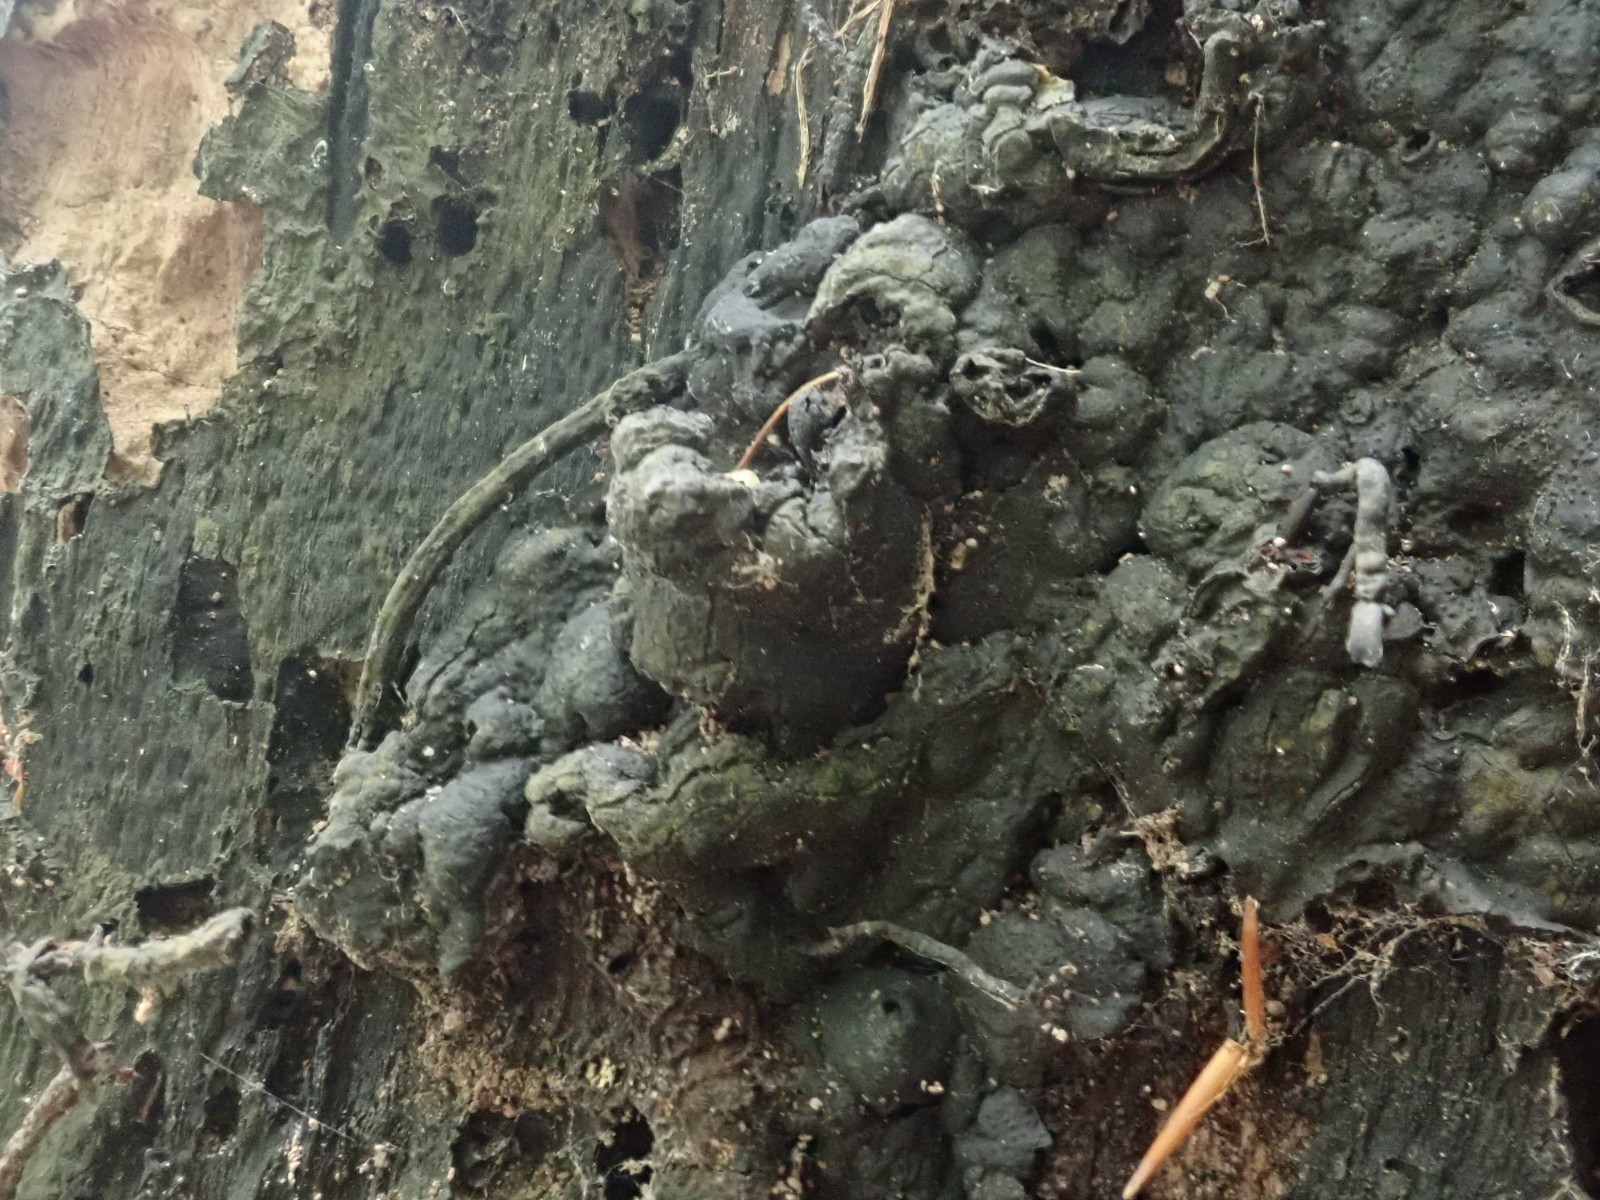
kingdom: Fungi
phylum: Ascomycota
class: Sordariomycetes
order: Xylariales
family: Xylariaceae
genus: Kretzschmaria
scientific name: Kretzschmaria deusta
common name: stor kulsvamp
